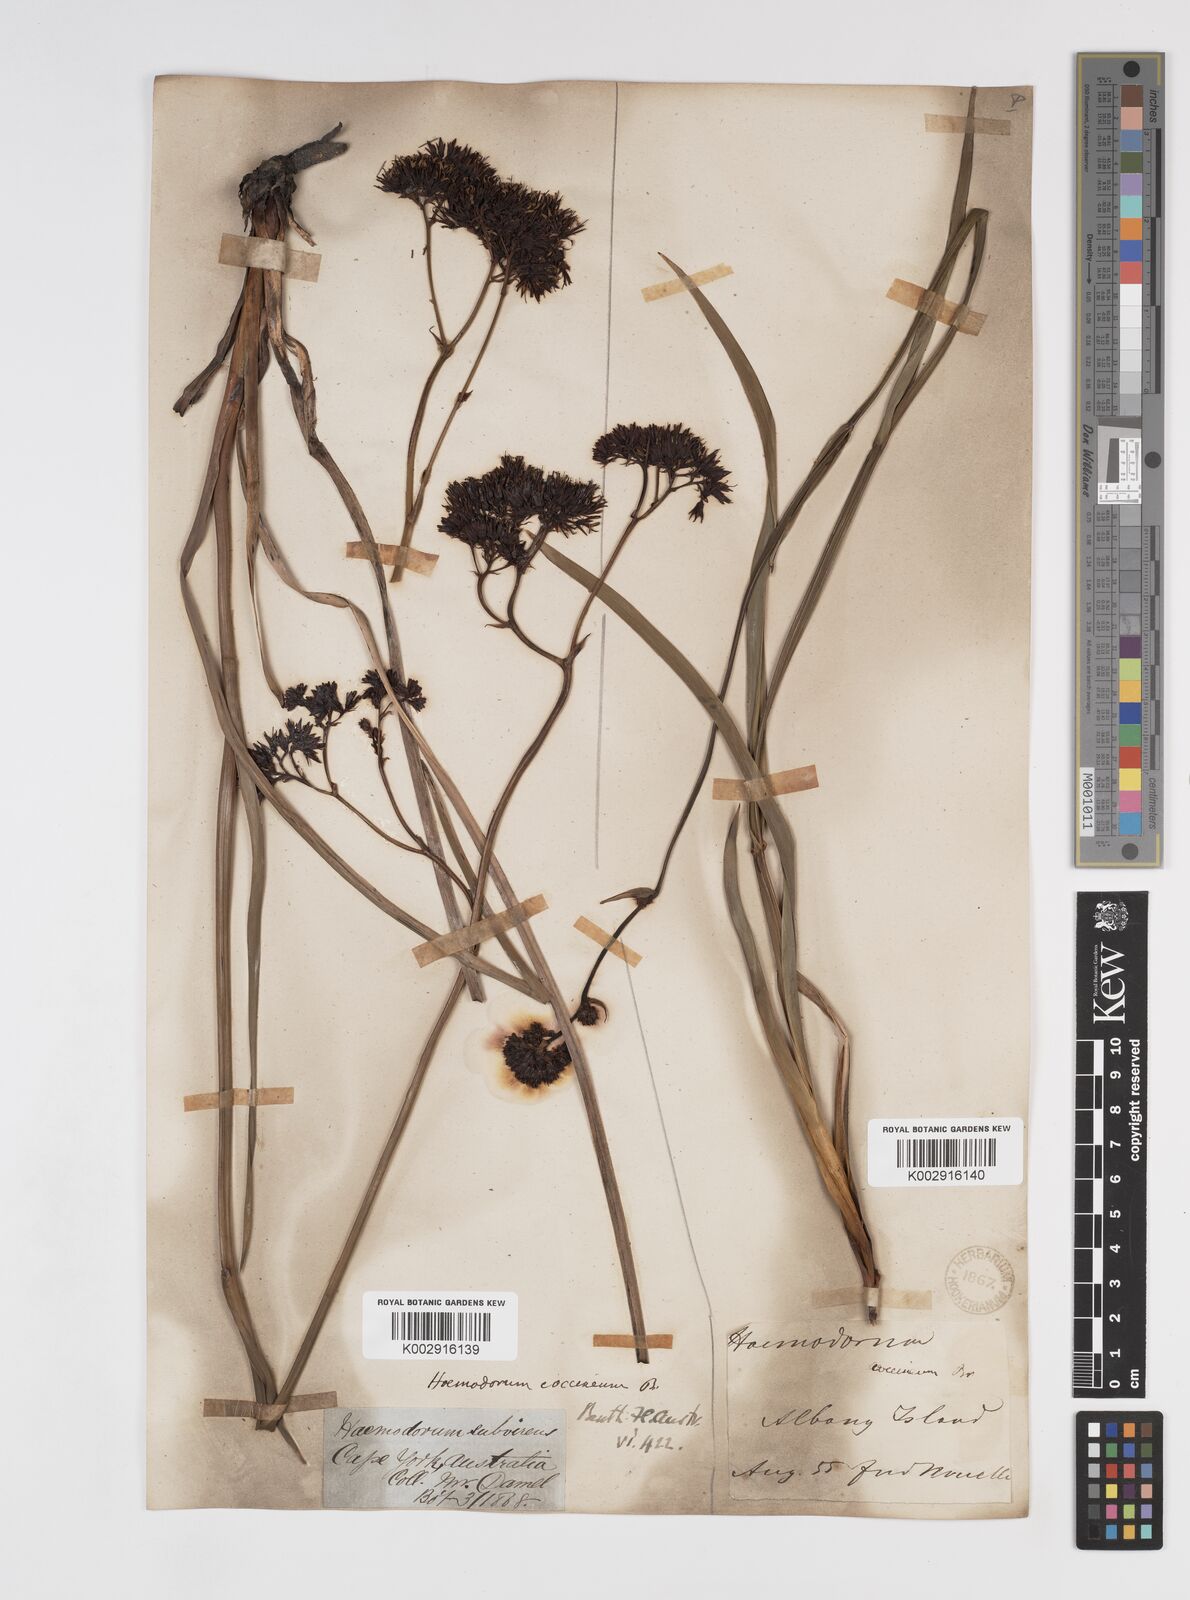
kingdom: Plantae
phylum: Tracheophyta
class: Liliopsida
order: Commelinales
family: Haemodoraceae
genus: Haemodorum
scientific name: Haemodorum coccineum
